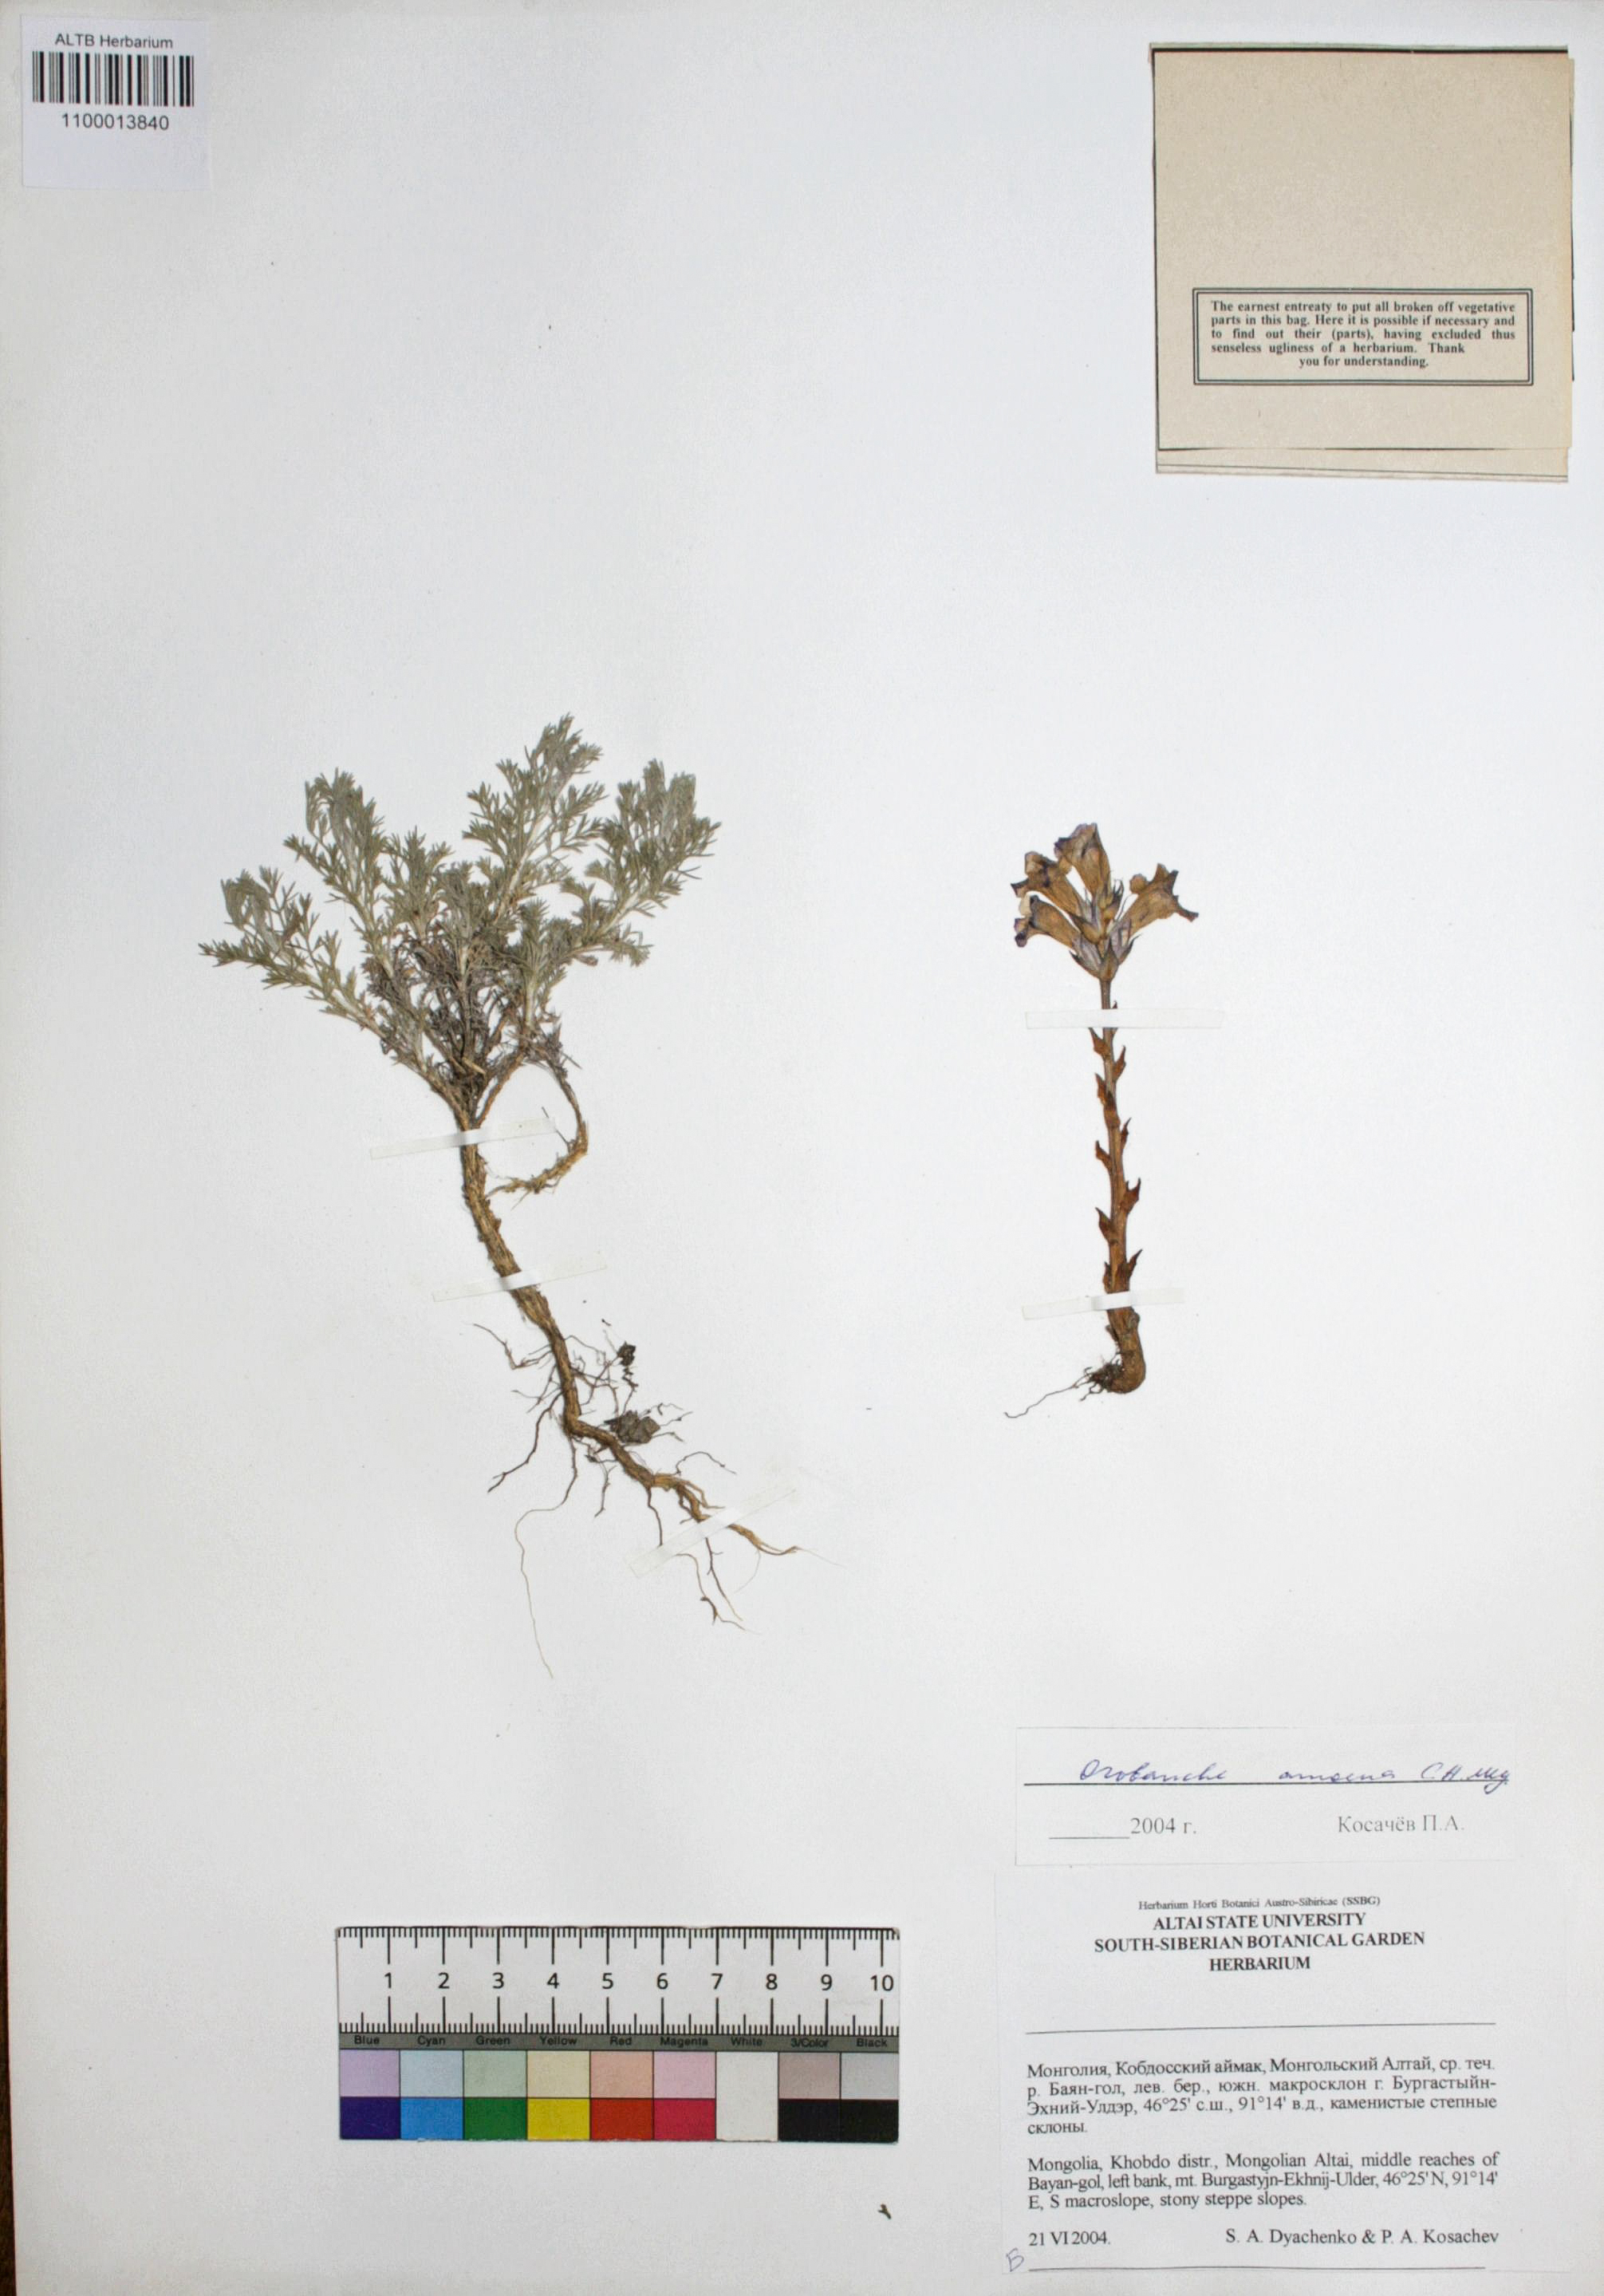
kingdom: Plantae
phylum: Tracheophyta
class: Magnoliopsida
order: Lamiales
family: Orobanchaceae
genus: Orobanche
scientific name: Orobanche amoena
